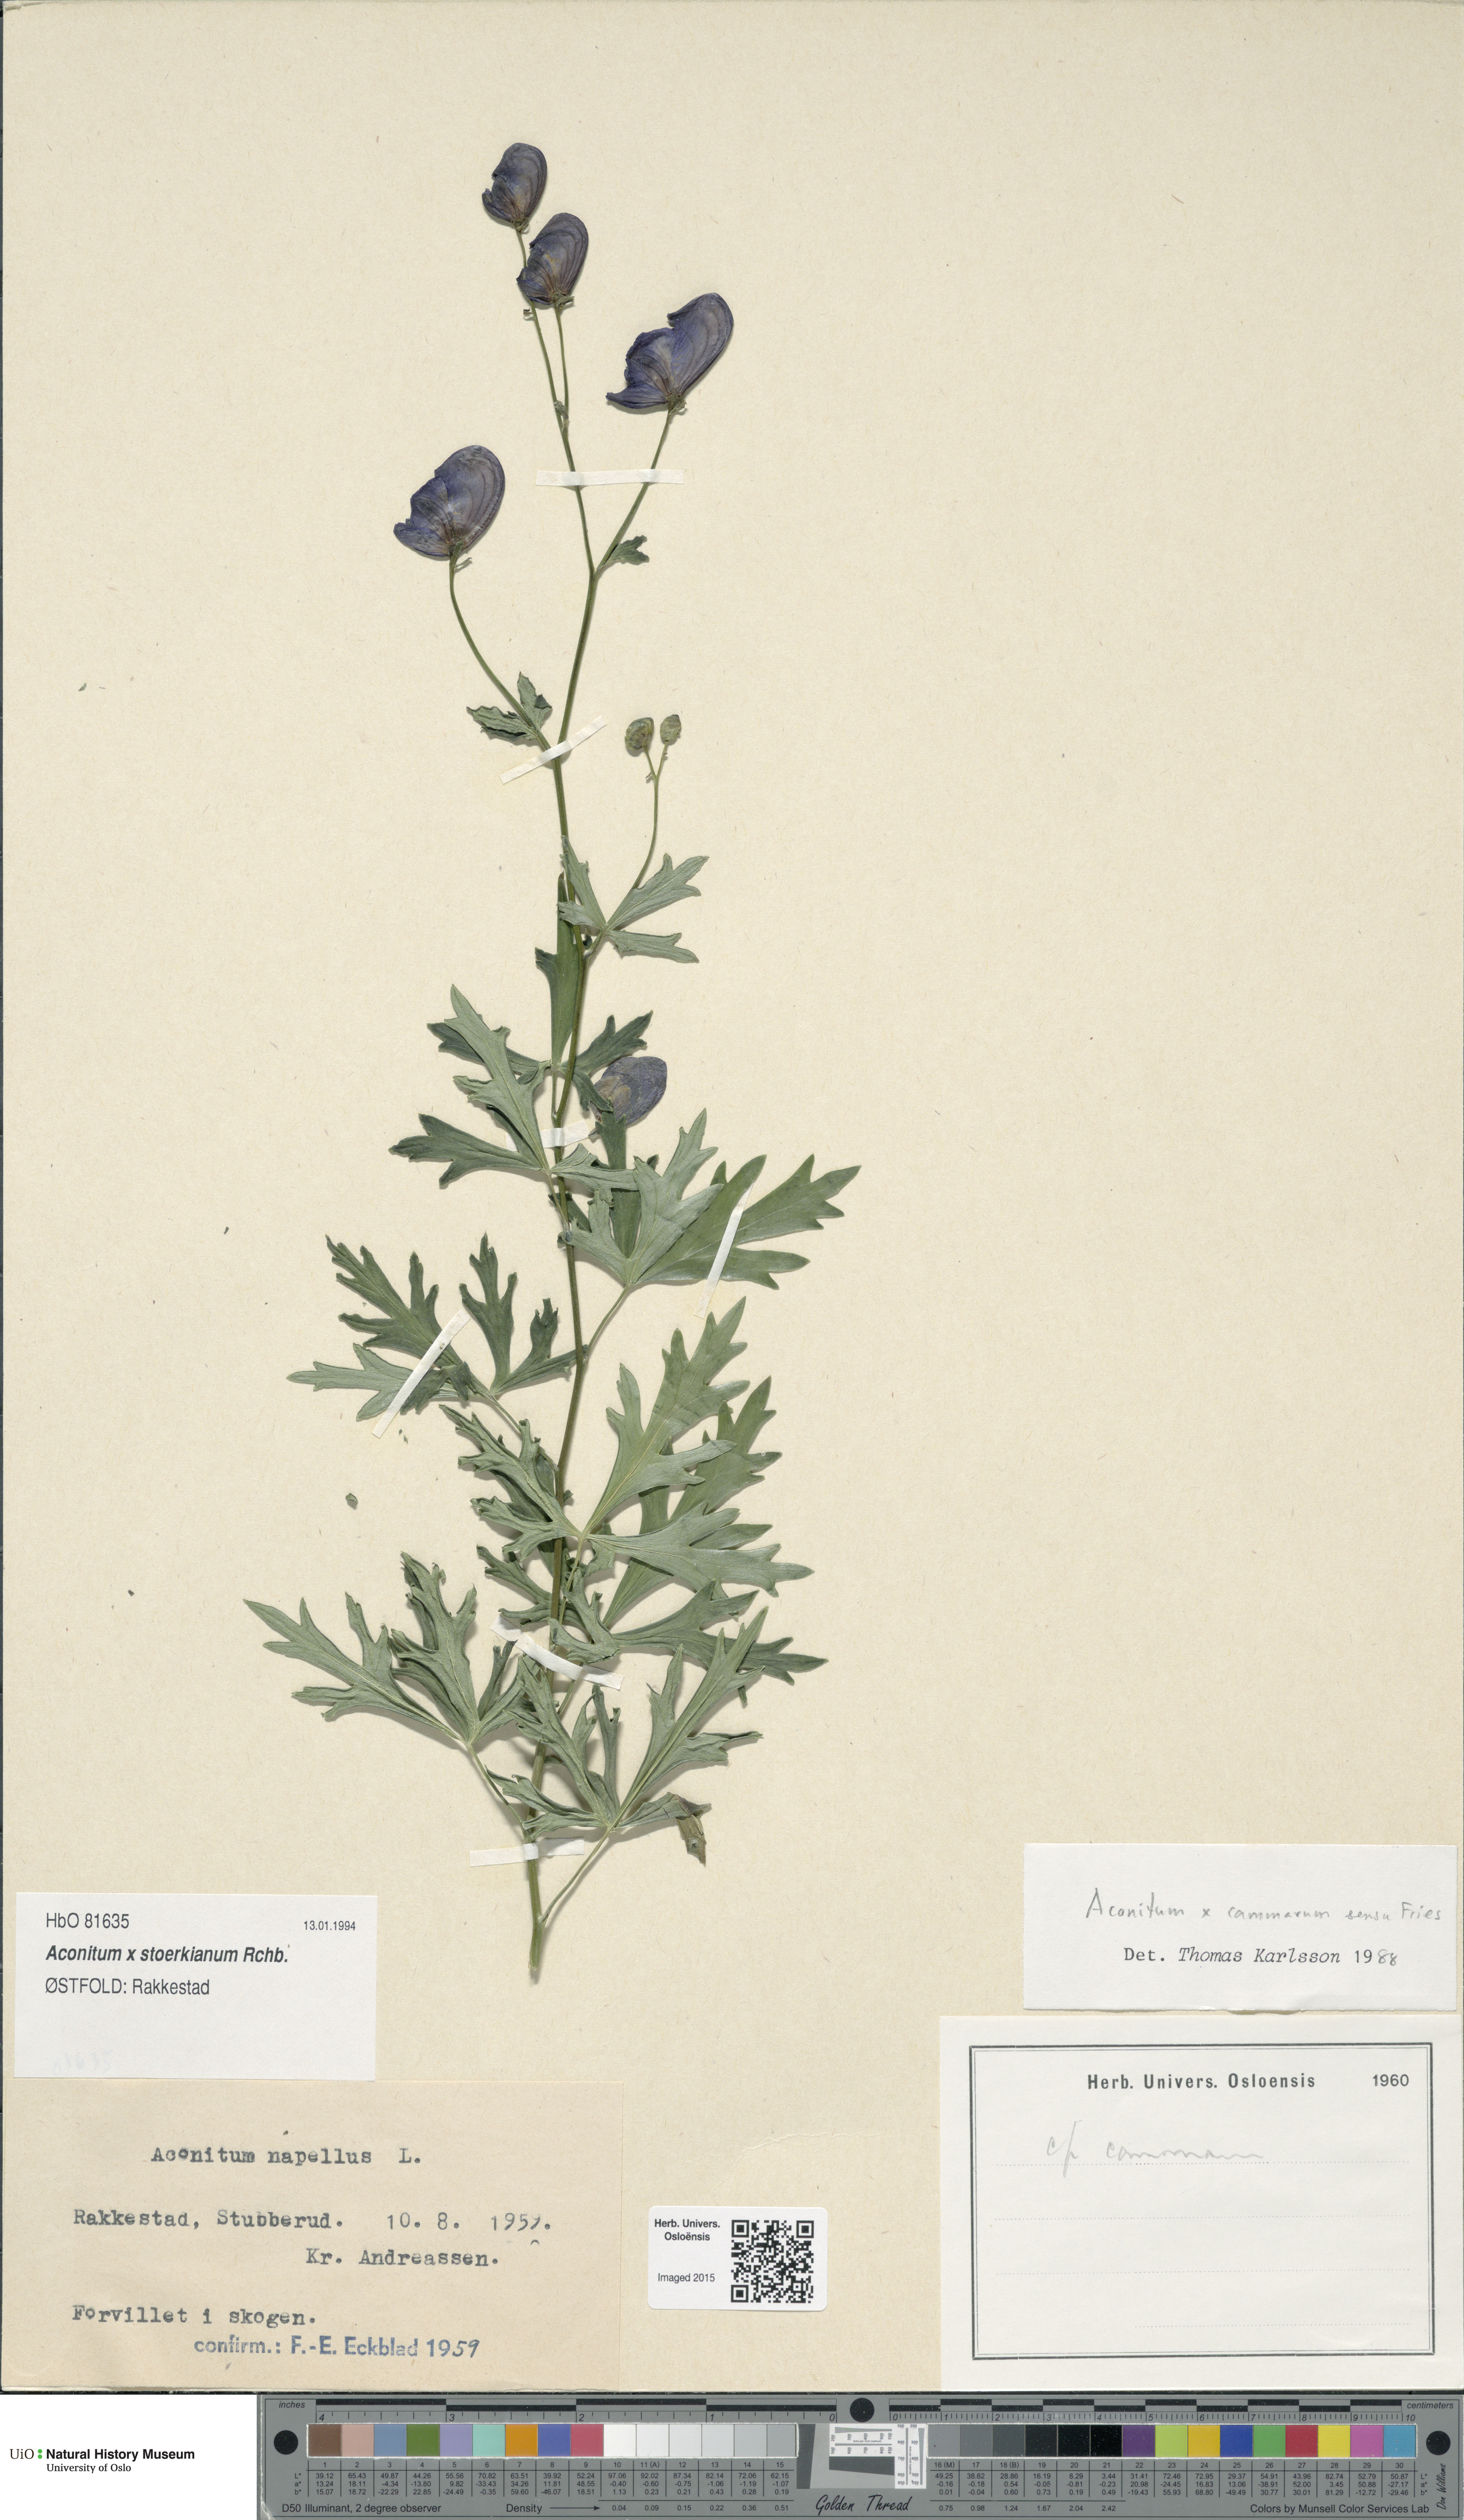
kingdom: Plantae
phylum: Tracheophyta
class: Magnoliopsida
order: Ranunculales
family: Ranunculaceae
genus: Aconitum
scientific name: Aconitum cammarum
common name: Hybrid monk's-hood
